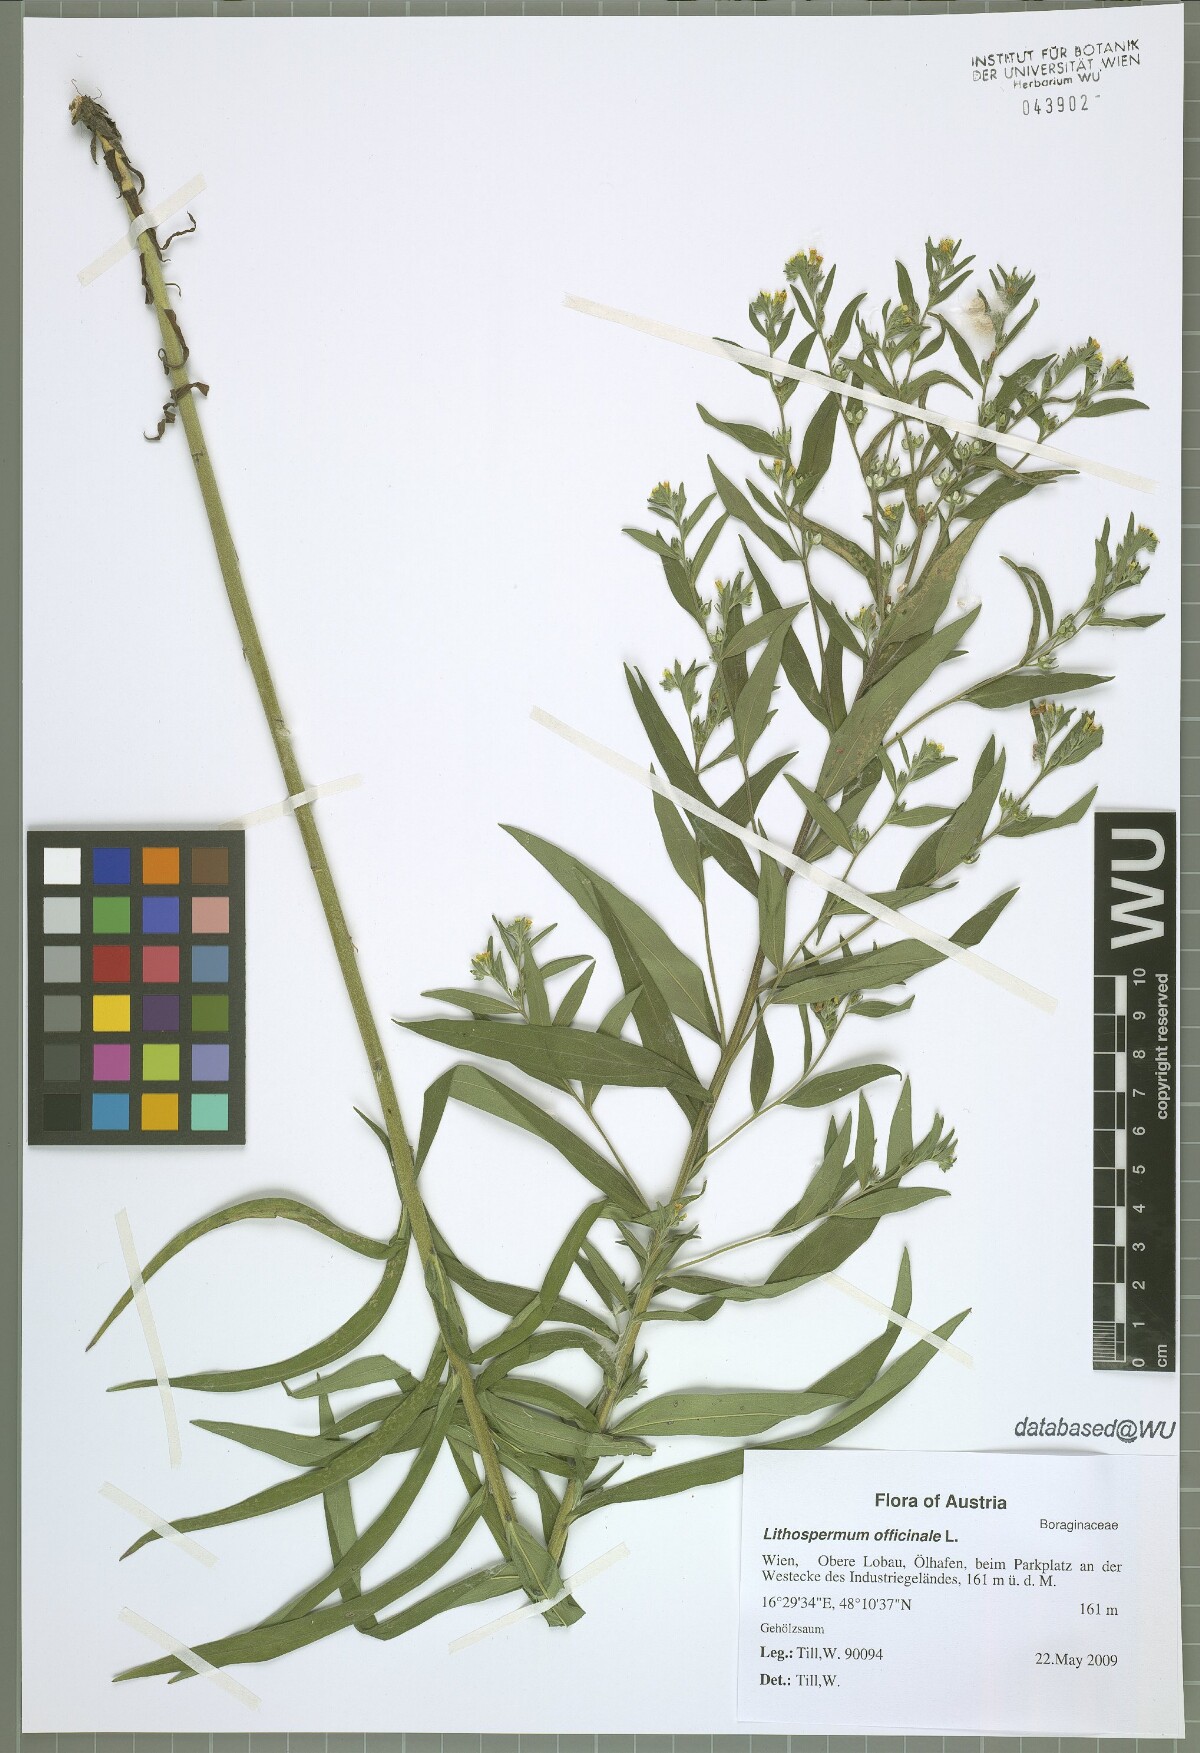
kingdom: Plantae
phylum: Tracheophyta
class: Magnoliopsida
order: Boraginales
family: Boraginaceae
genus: Lithospermum
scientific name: Lithospermum officinale
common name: Common gromwell
